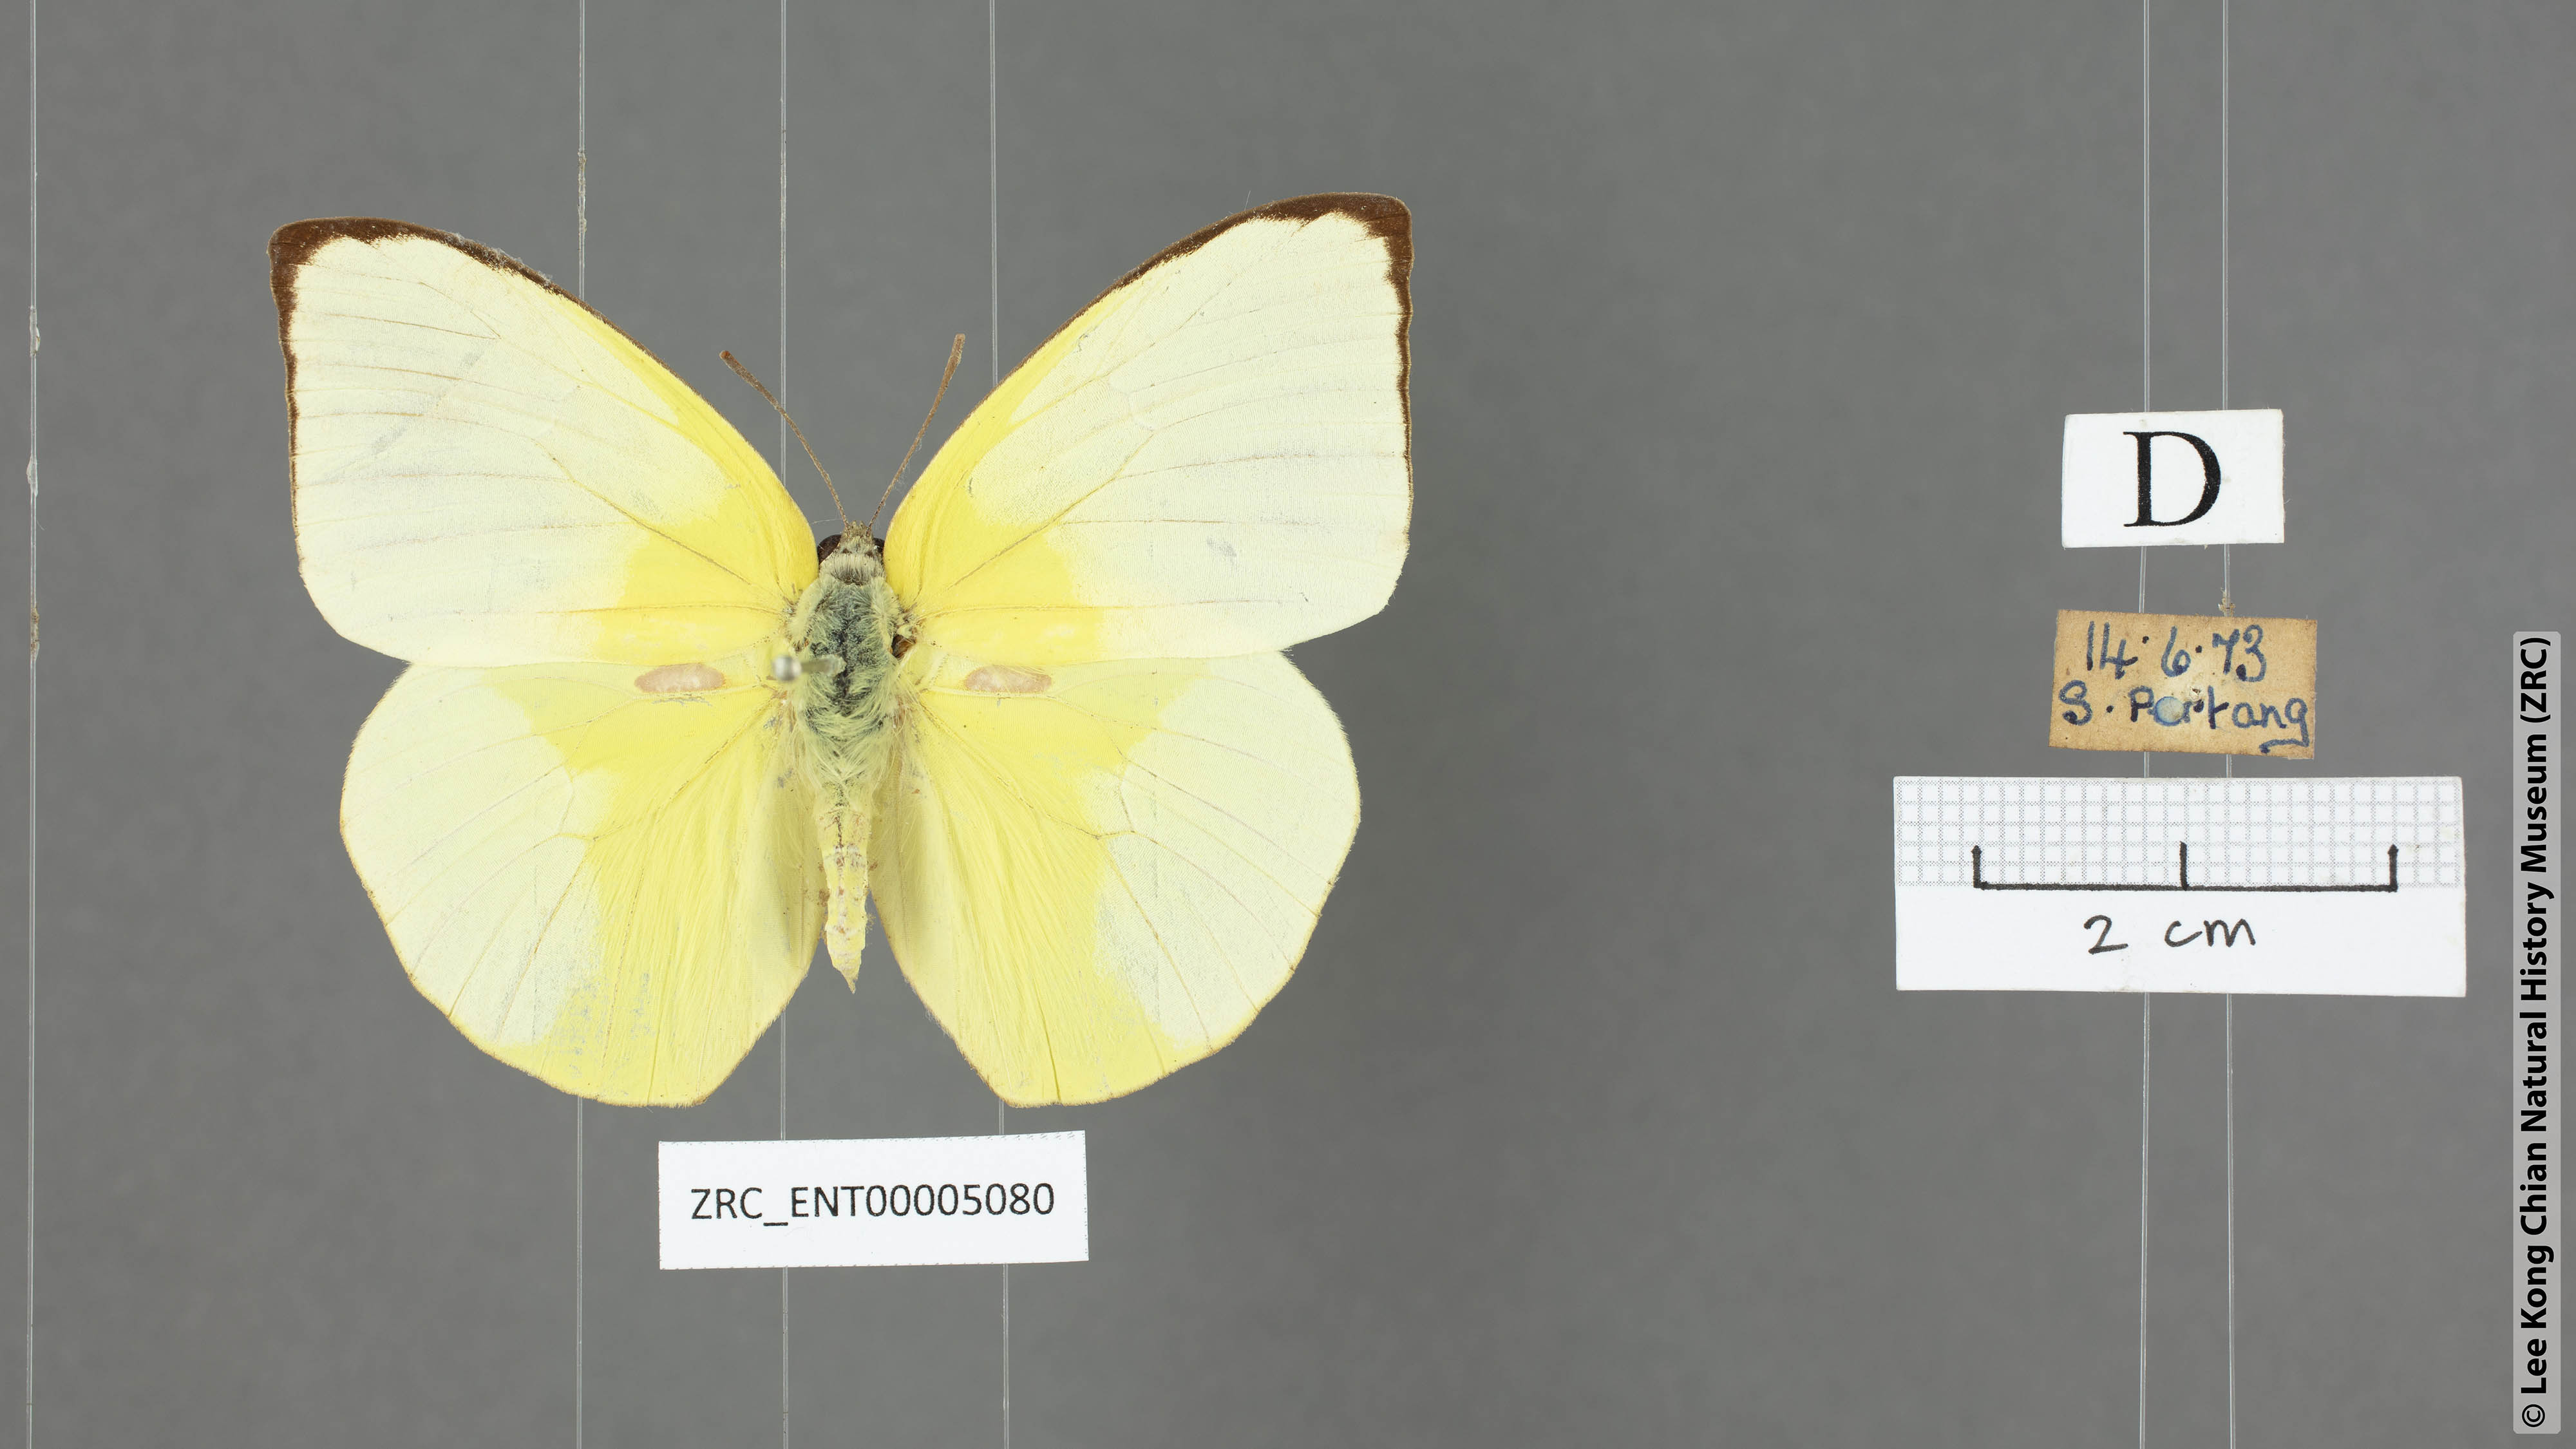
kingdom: Animalia
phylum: Arthropoda
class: Insecta
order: Lepidoptera
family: Pieridae
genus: Catopsilia
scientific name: Catopsilia pomona
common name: Common emigrant
